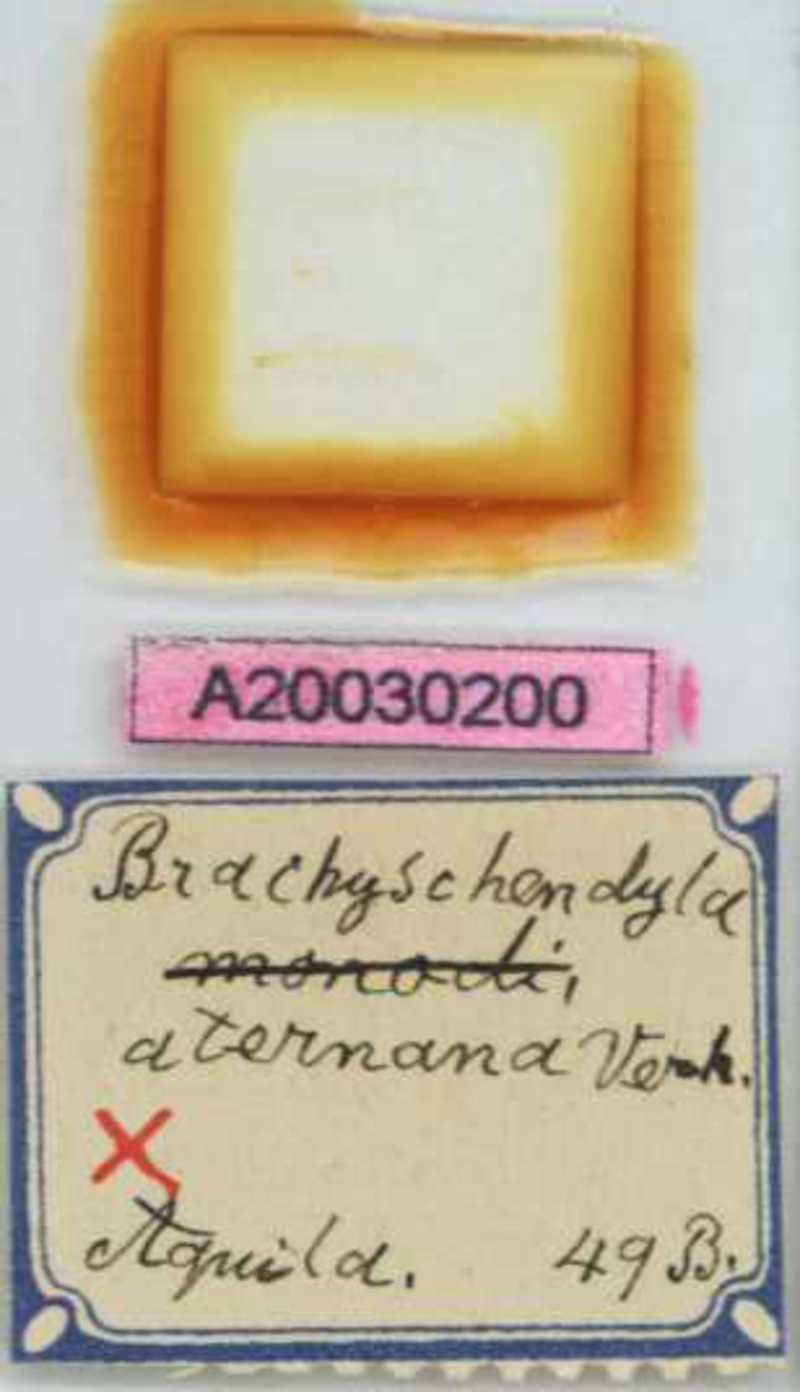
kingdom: Animalia
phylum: Arthropoda
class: Chilopoda
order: Geophilomorpha
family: Schendylidae
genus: Schendyla
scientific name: Schendyla aternana
